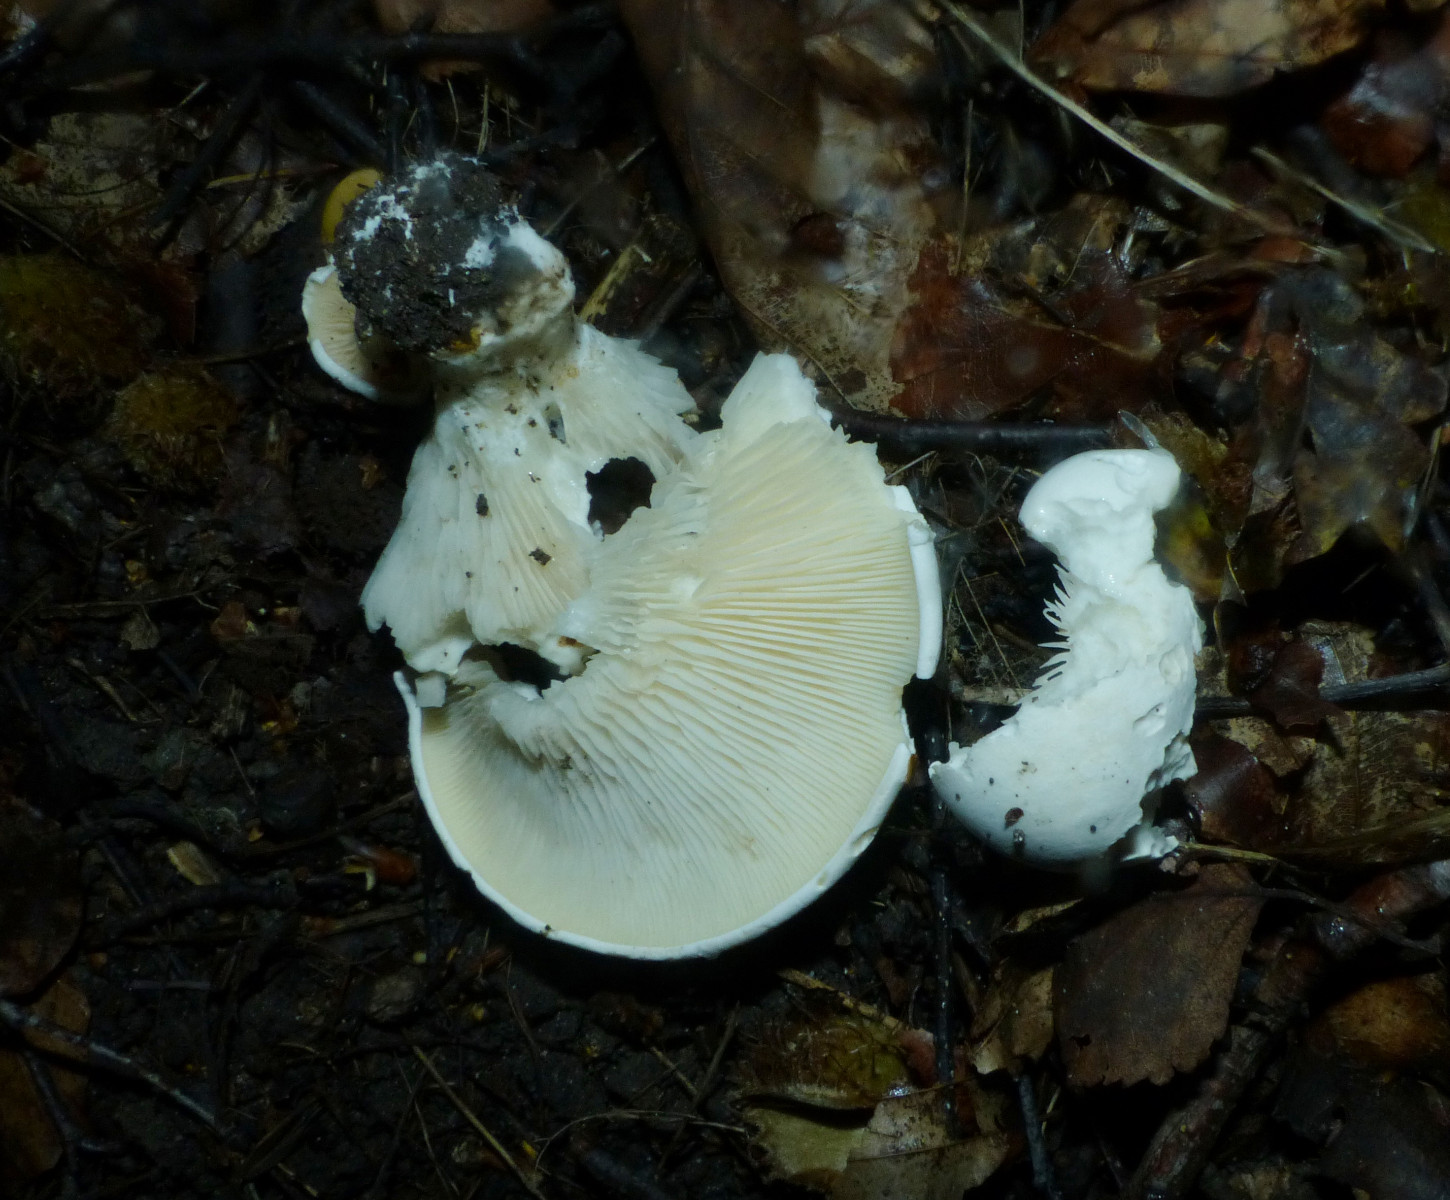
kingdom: Fungi
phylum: Basidiomycota
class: Agaricomycetes
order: Agaricales
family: Entolomataceae
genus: Clitopilus
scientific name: Clitopilus prunulus
